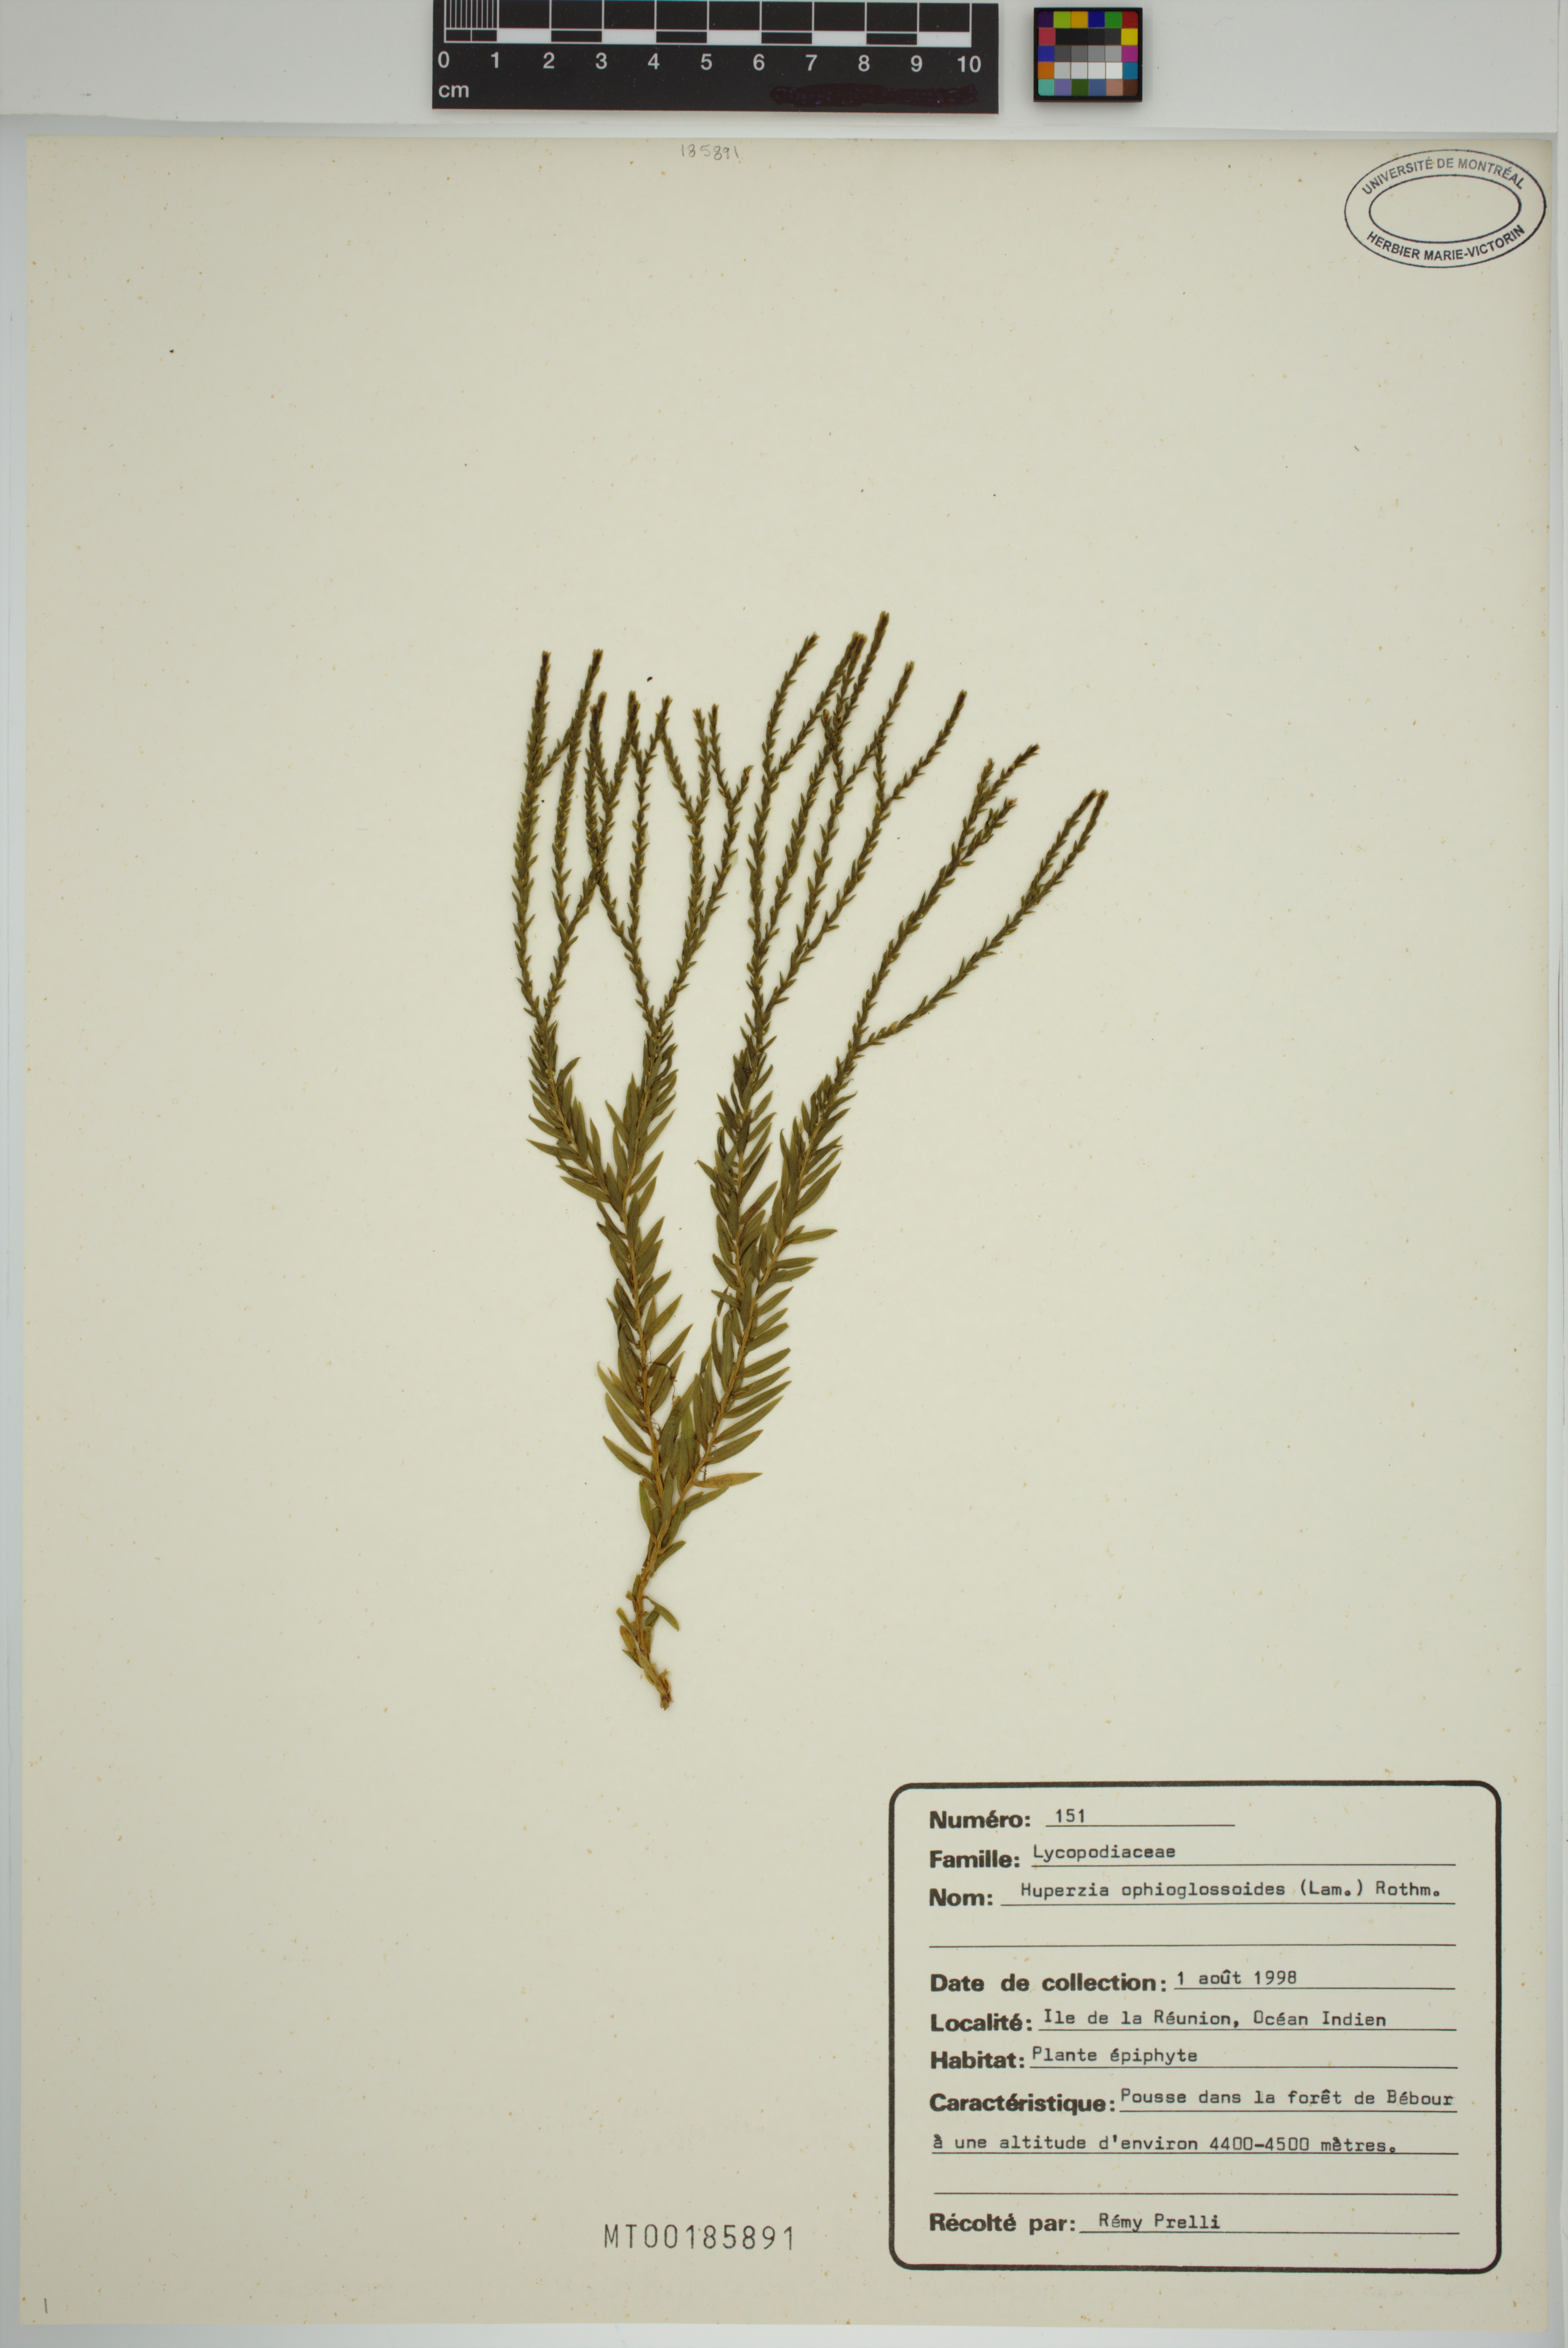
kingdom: Plantae
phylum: Tracheophyta
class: Lycopodiopsida
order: Lycopodiales
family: Lycopodiaceae
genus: Phlegmariurus
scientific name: Phlegmariurus ophioglossoides
